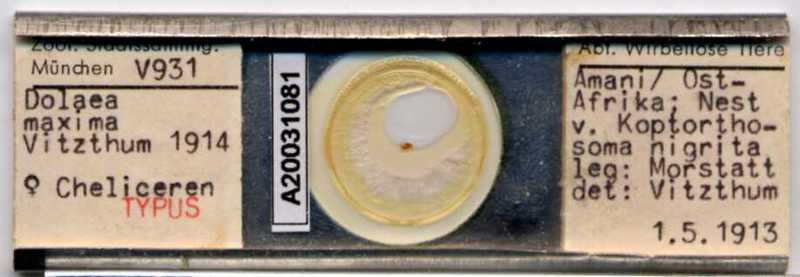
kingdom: Animalia
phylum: Arthropoda
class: Arachnida
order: Mesostigmata
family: Laelapidae
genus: Dinogamasus
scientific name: Dinogamasus
